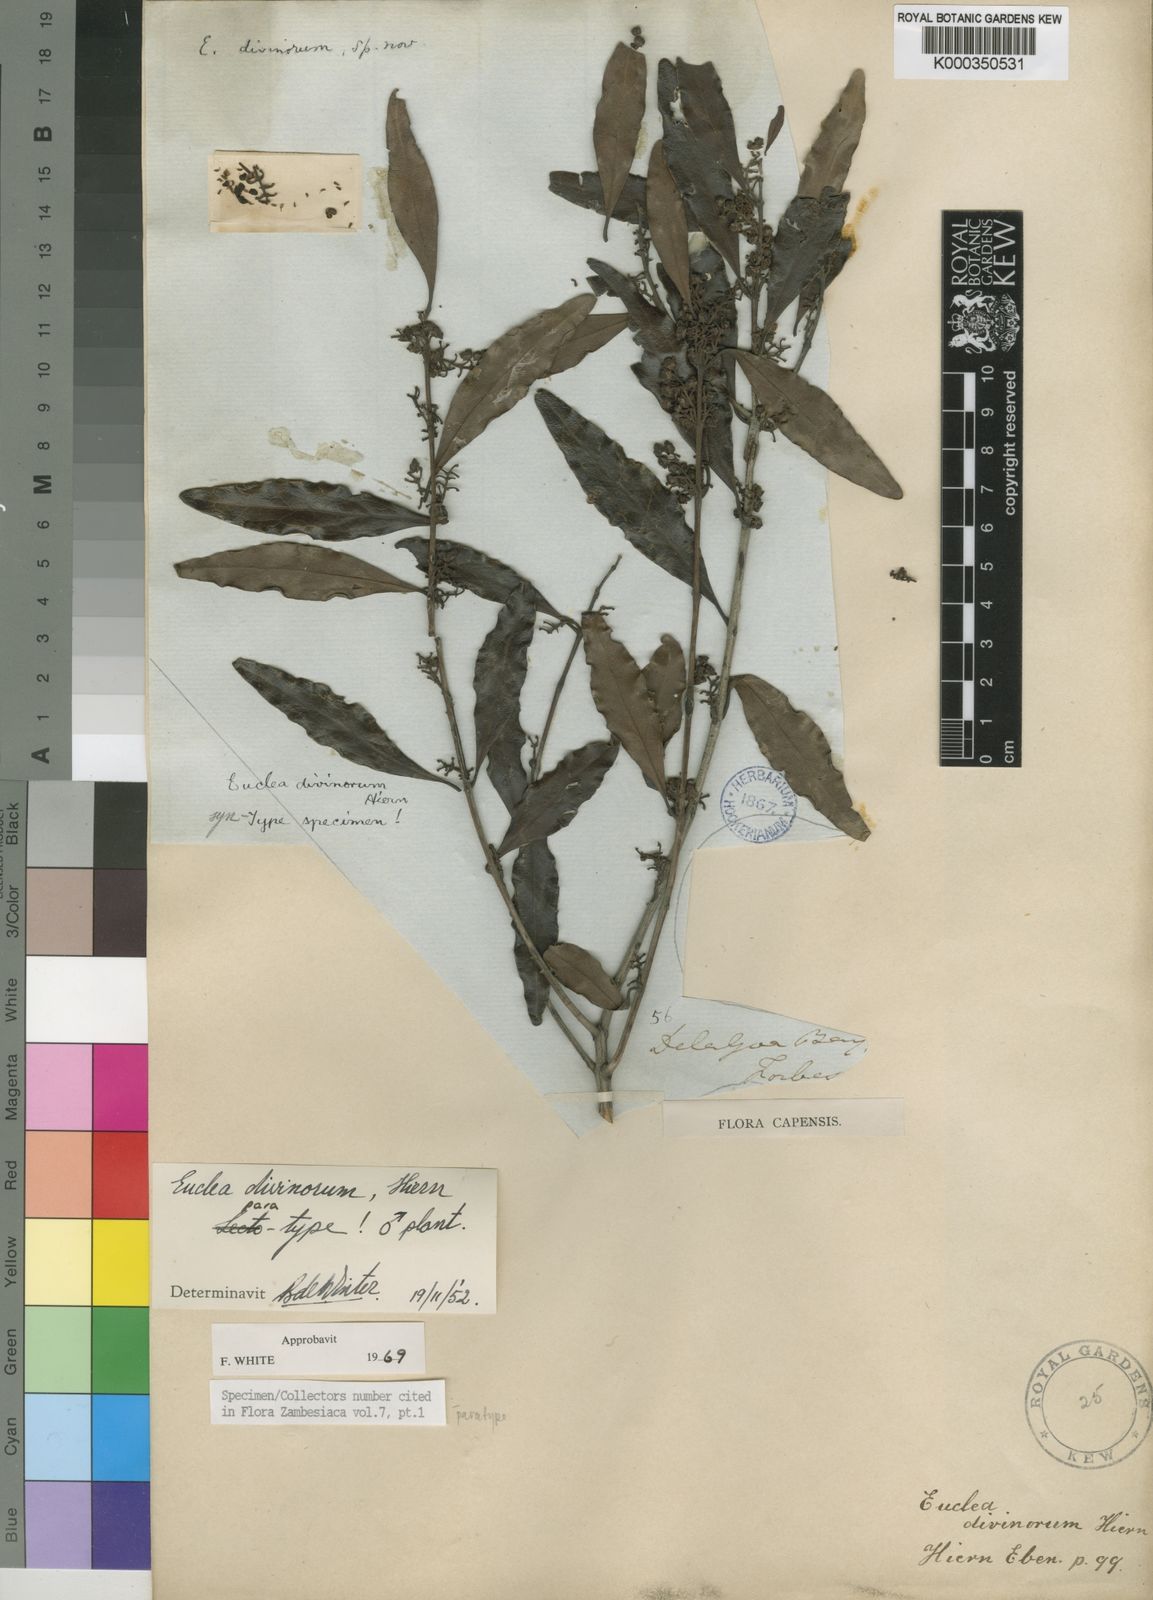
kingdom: Plantae
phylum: Tracheophyta
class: Magnoliopsida
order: Ericales
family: Ebenaceae
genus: Euclea
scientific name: Euclea divinorum
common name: Diamond-leaved euclea
